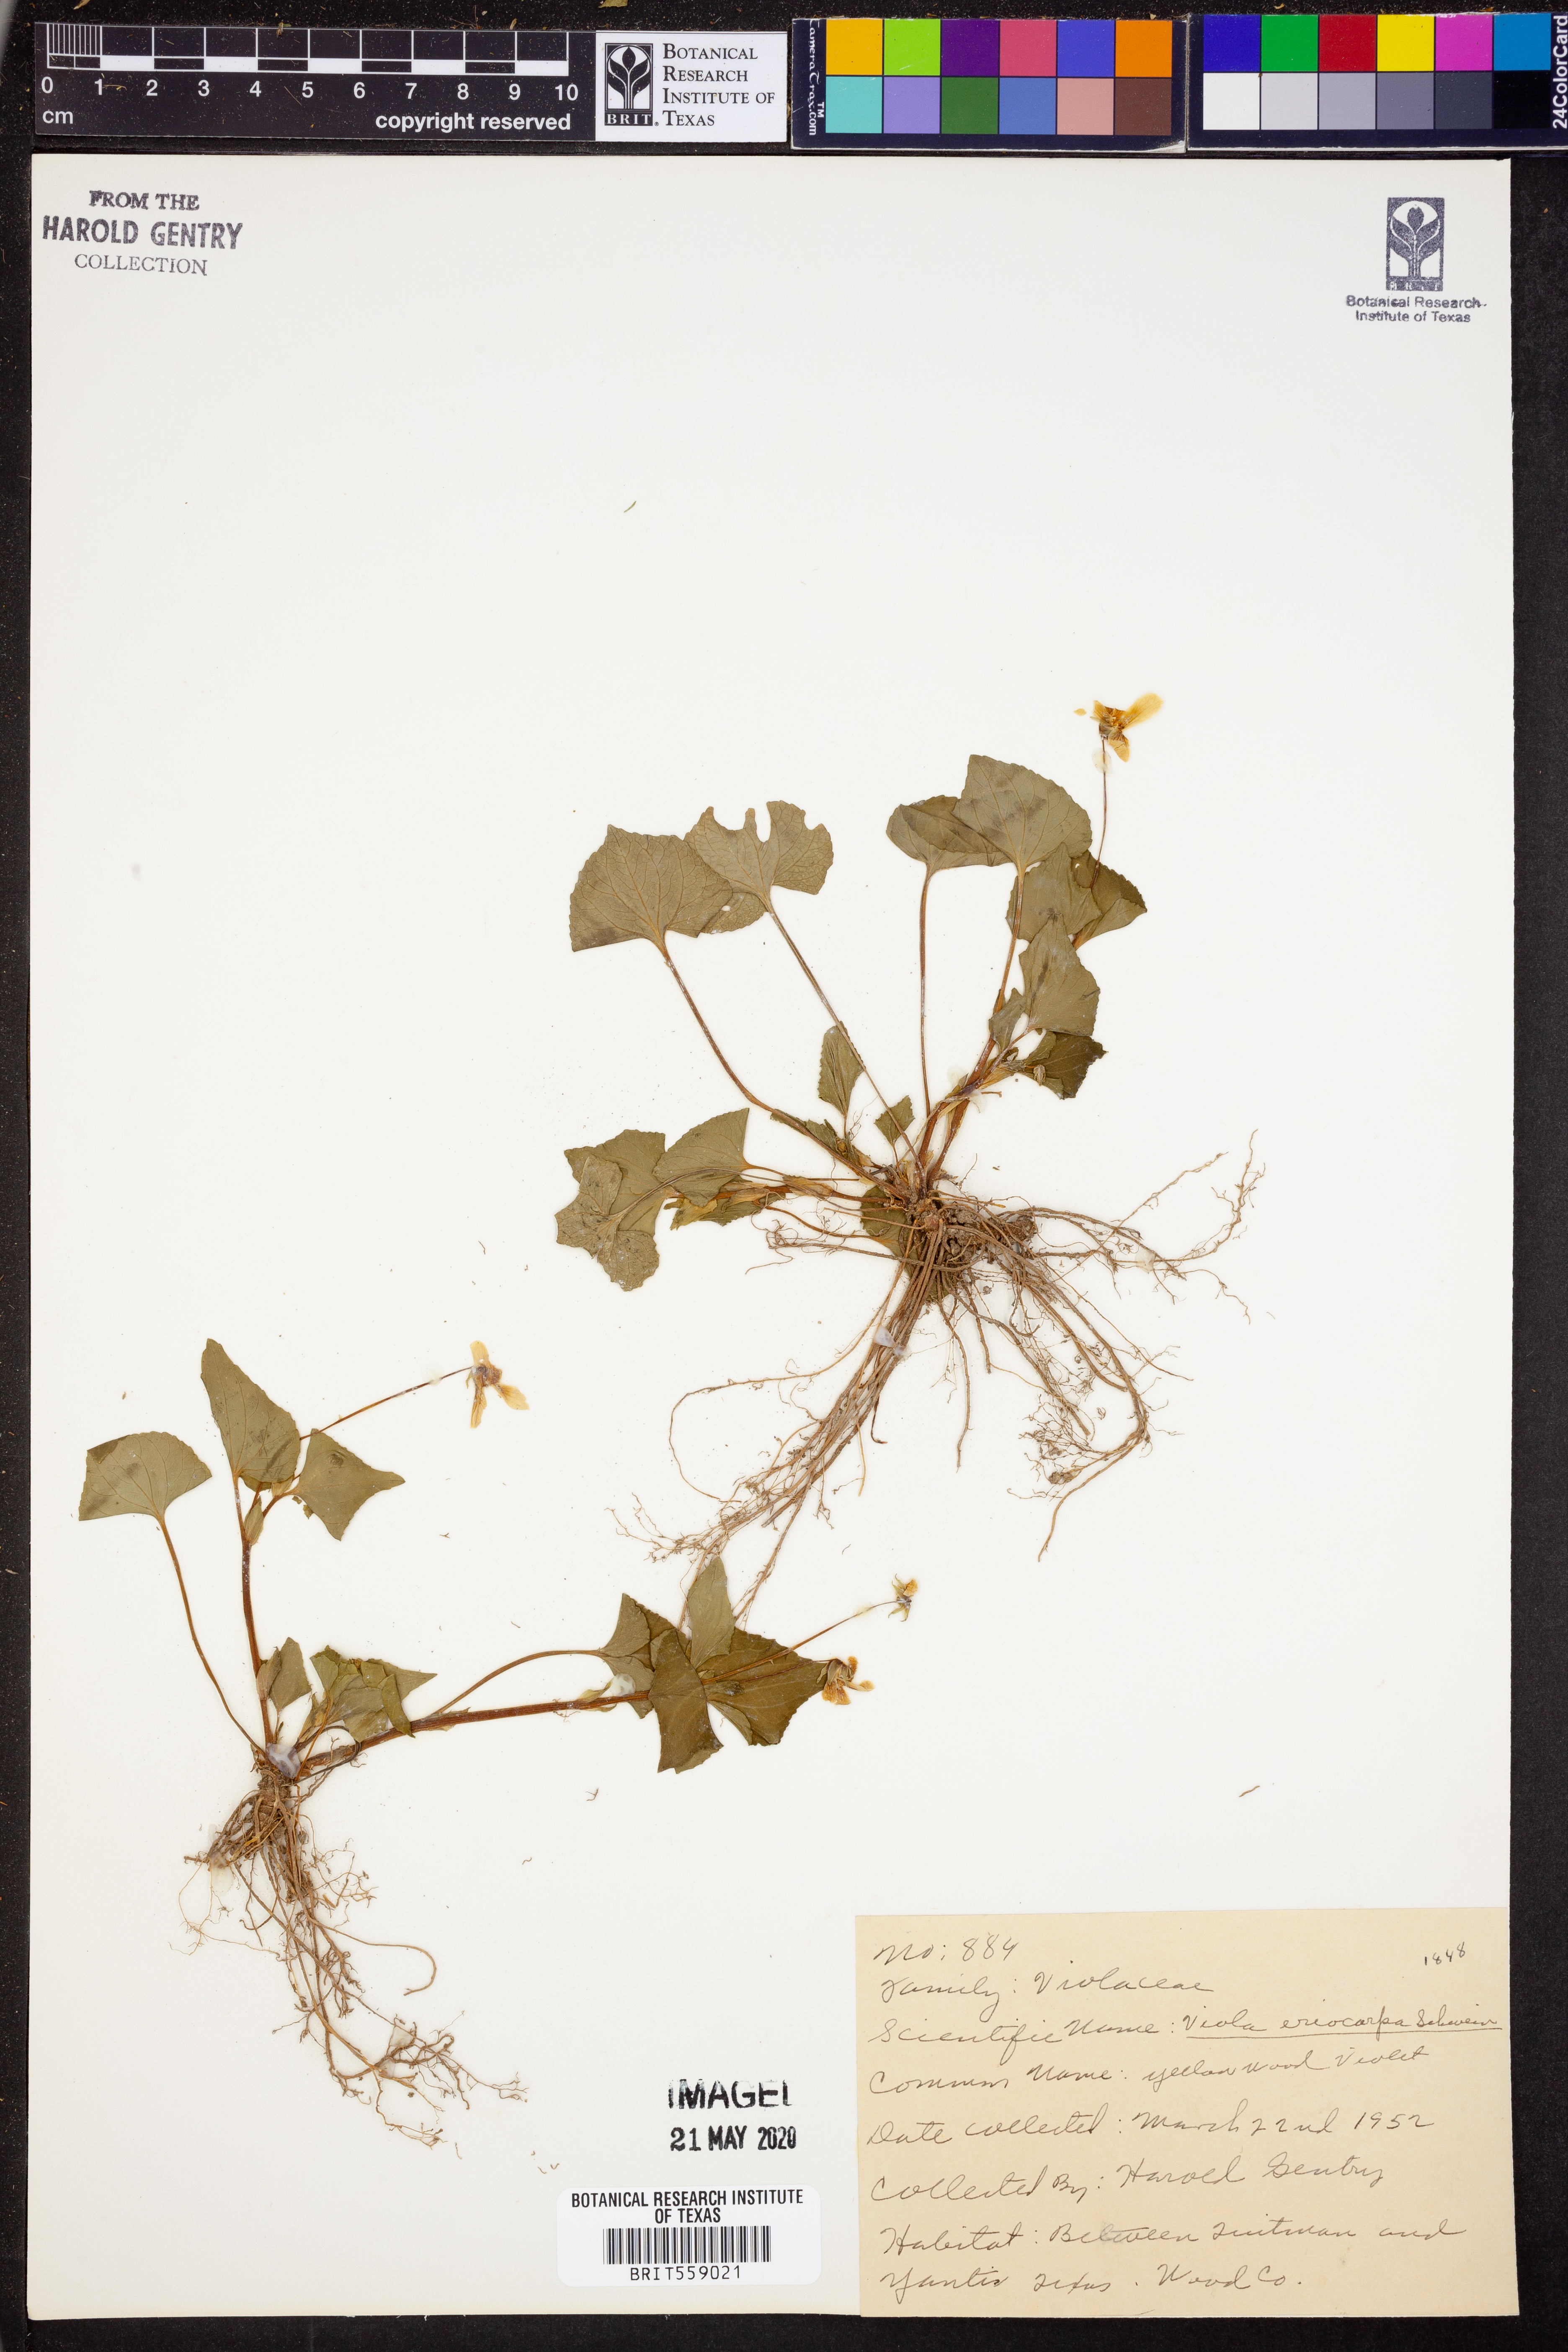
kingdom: Plantae
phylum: Tracheophyta
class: Magnoliopsida
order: Malpighiales
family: Violaceae
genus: Viola
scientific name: Viola eriocarpa
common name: Smooth yellow violet
